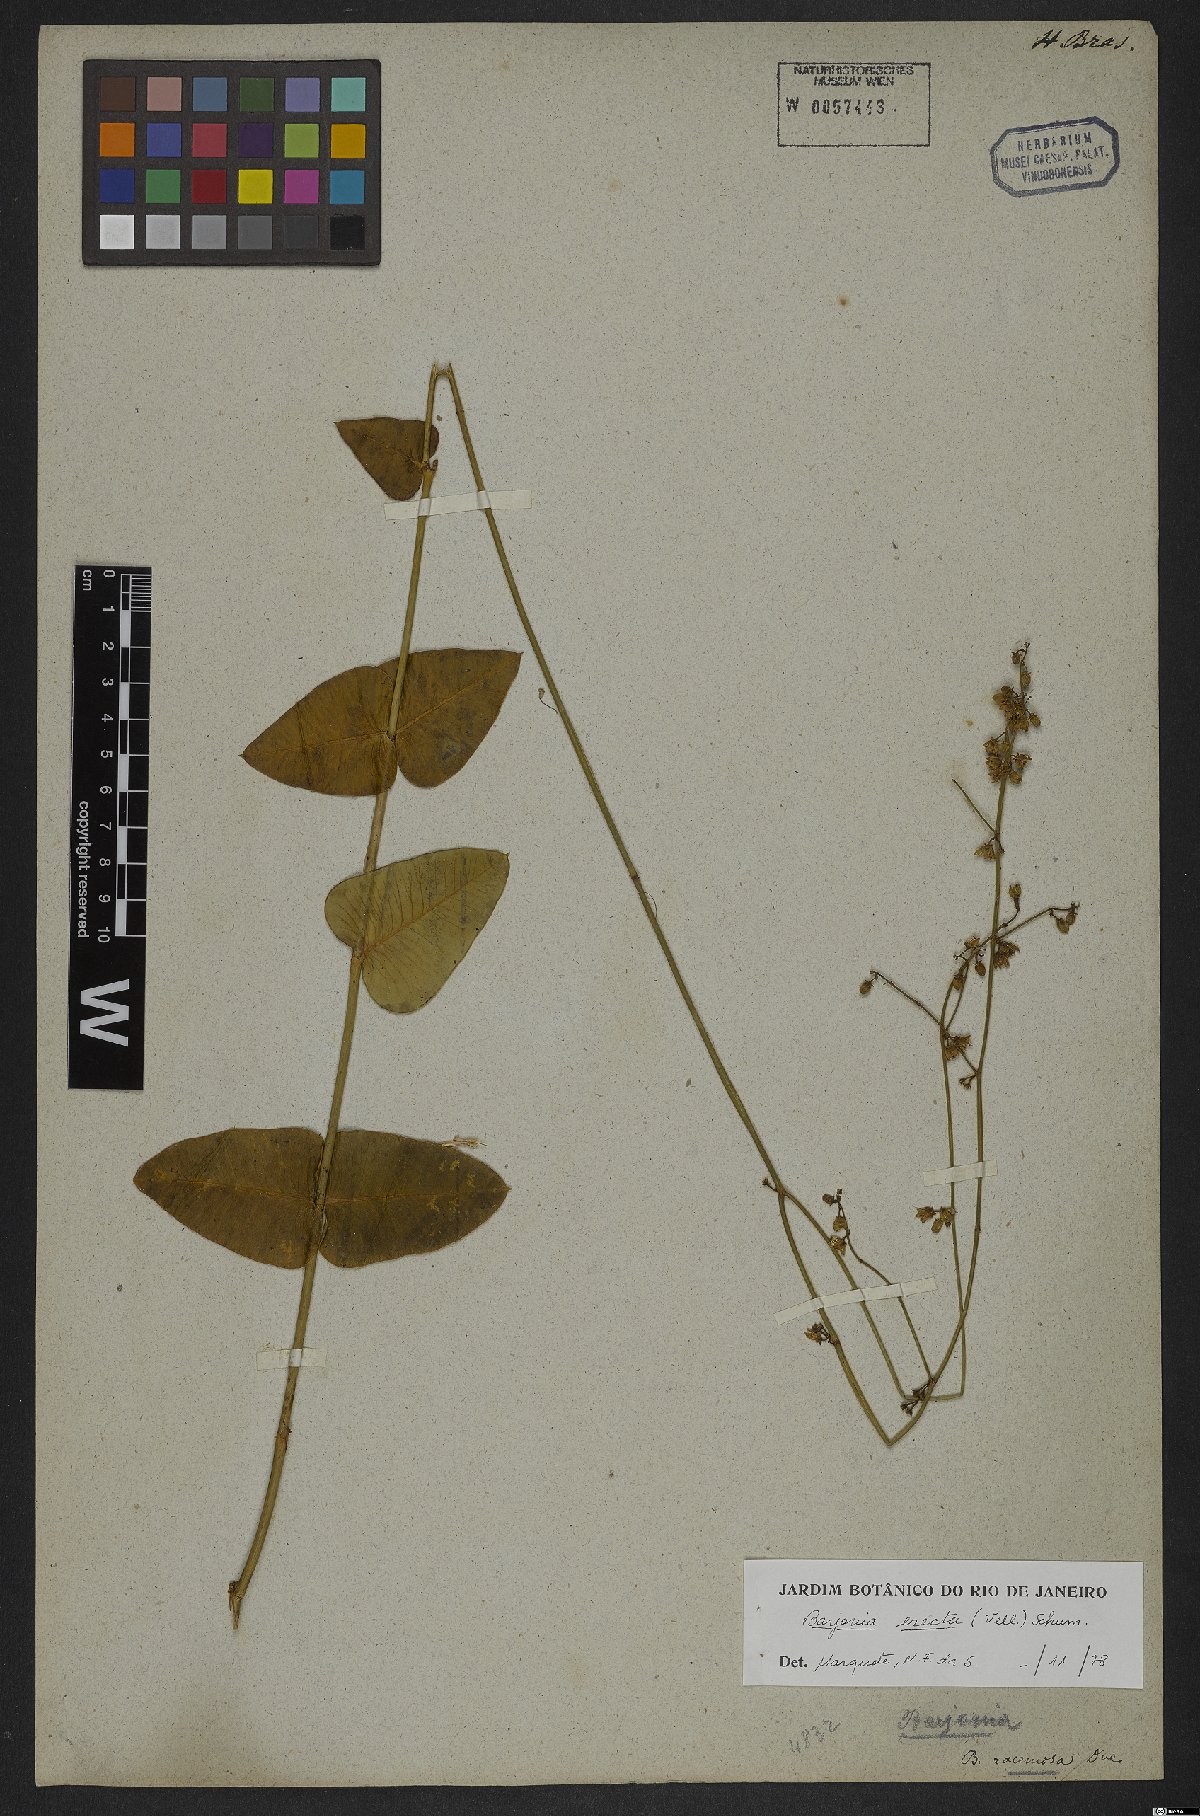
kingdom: Plantae
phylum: Tracheophyta
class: Magnoliopsida
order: Gentianales
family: Apocynaceae
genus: Barjonia
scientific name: Barjonia erecta
